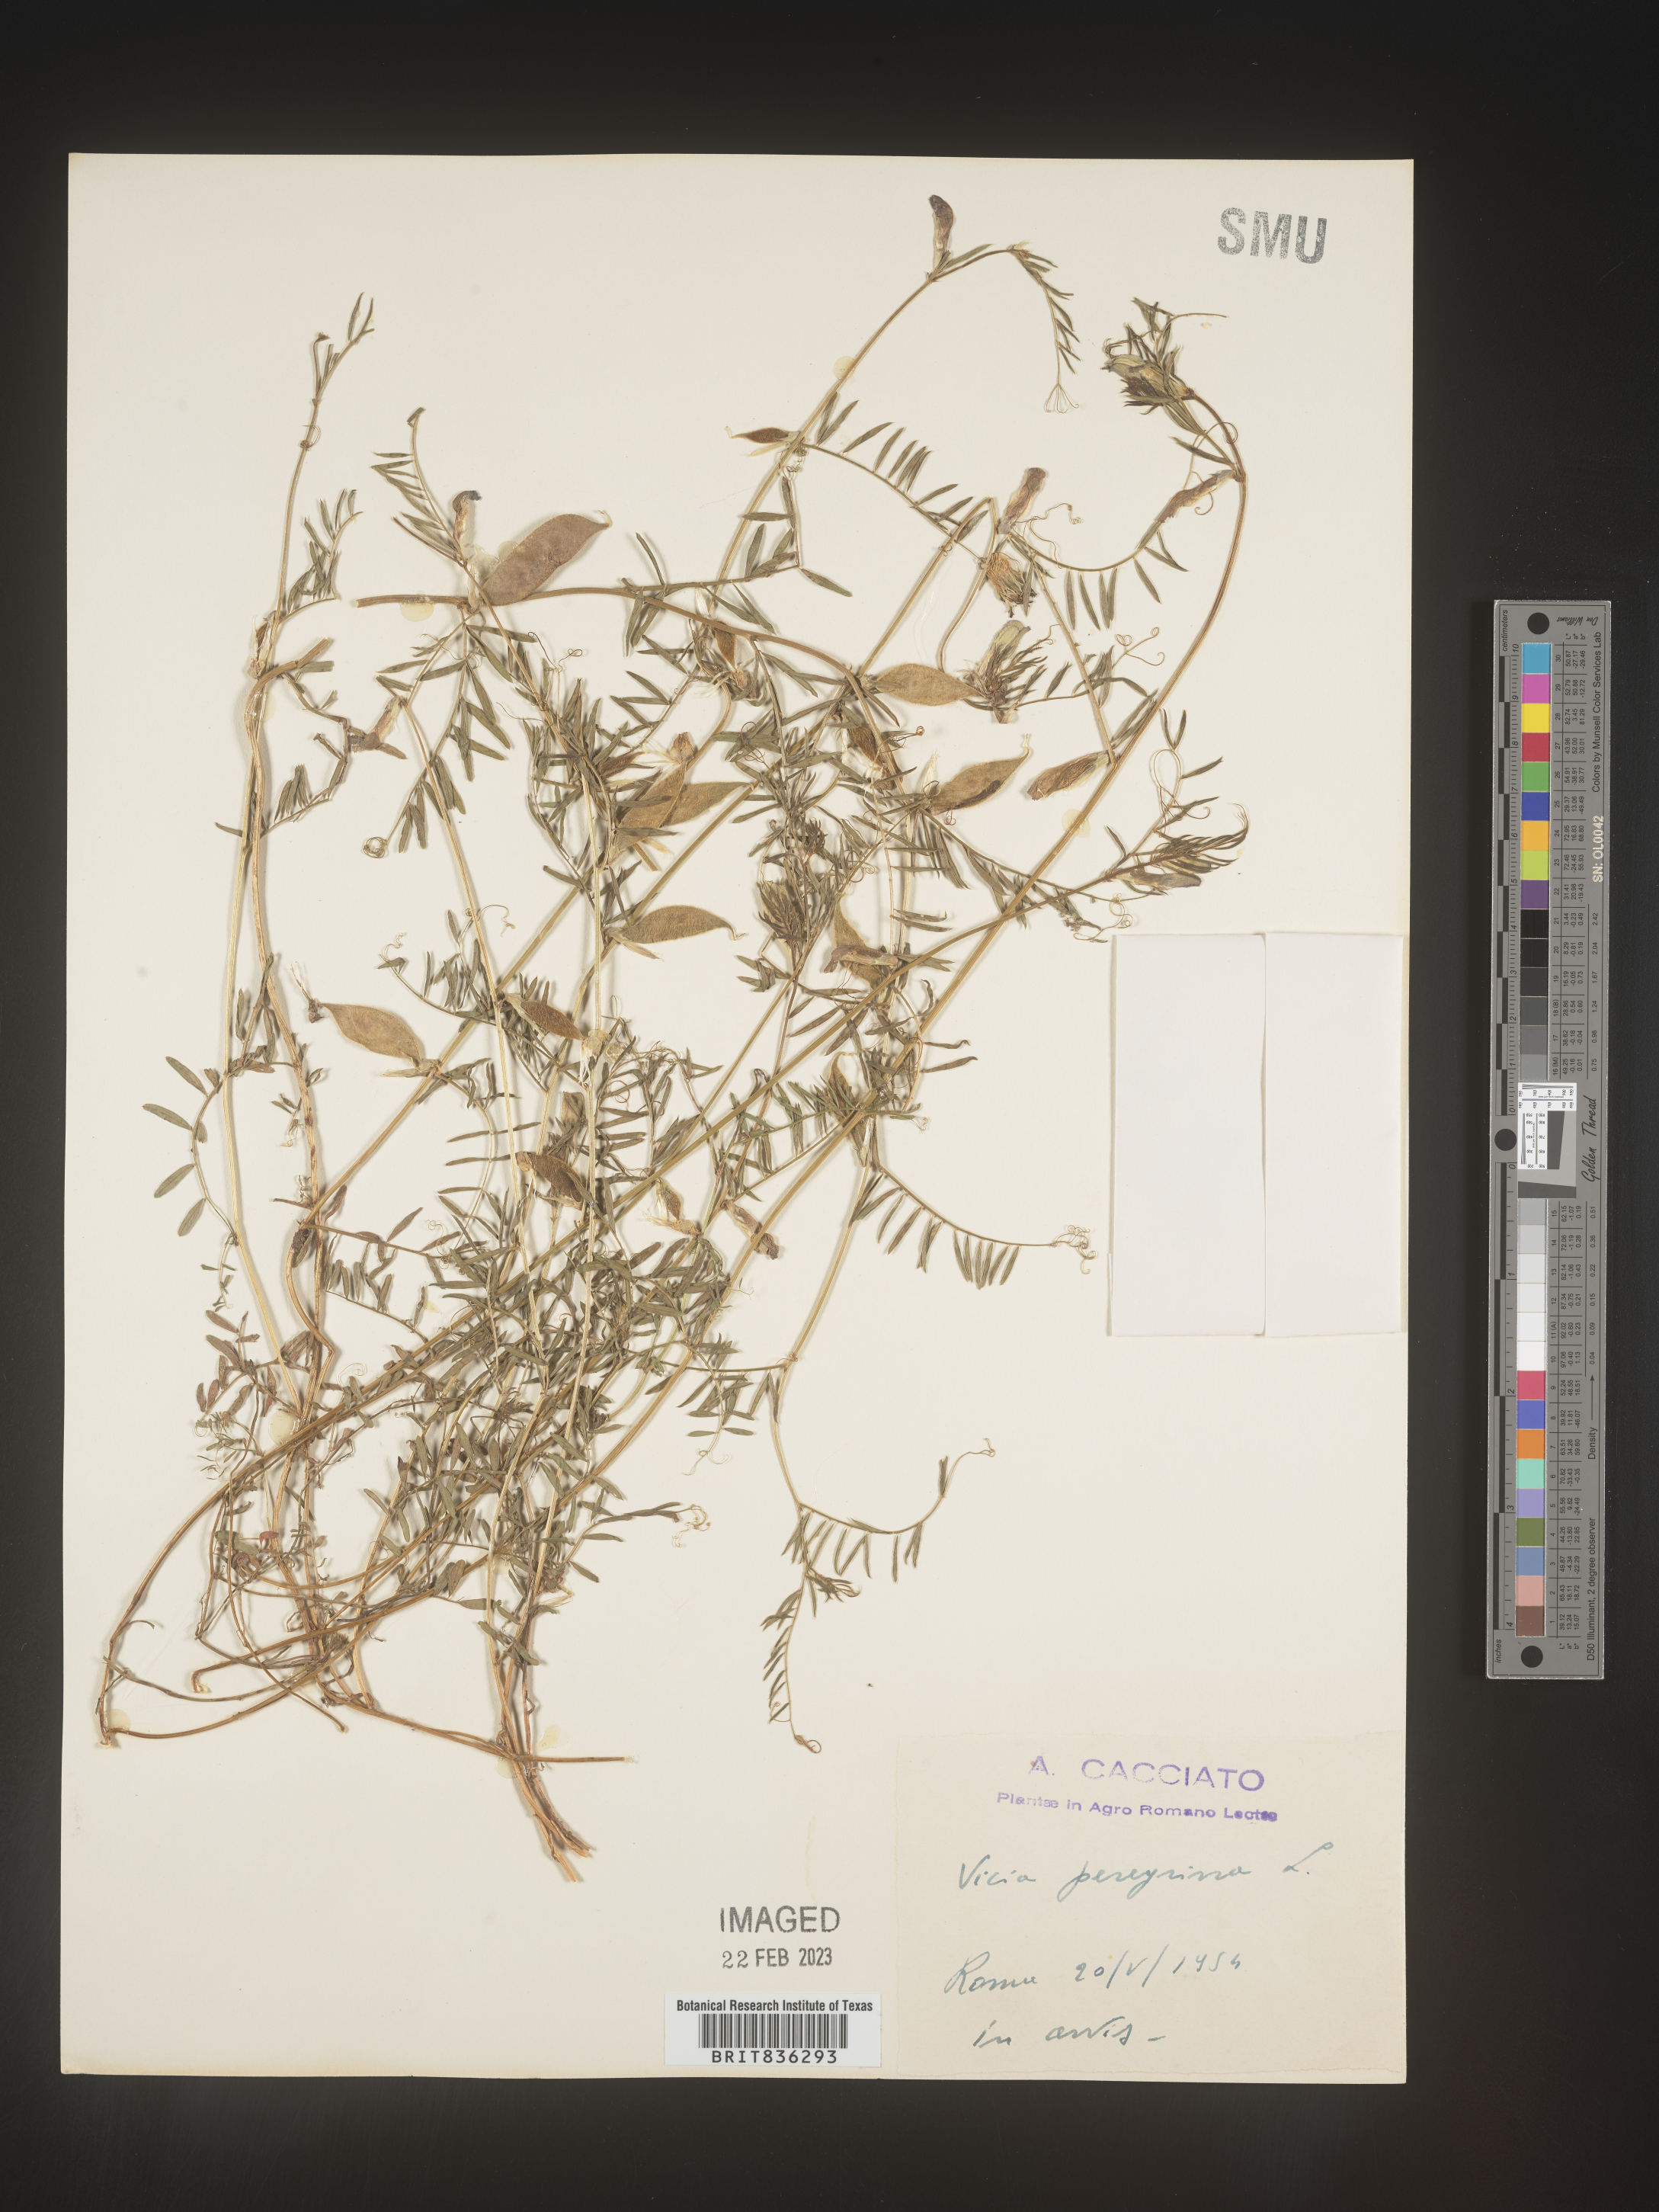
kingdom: Plantae
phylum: Tracheophyta
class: Magnoliopsida
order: Fabales
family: Fabaceae
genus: Vicia
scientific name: Vicia
